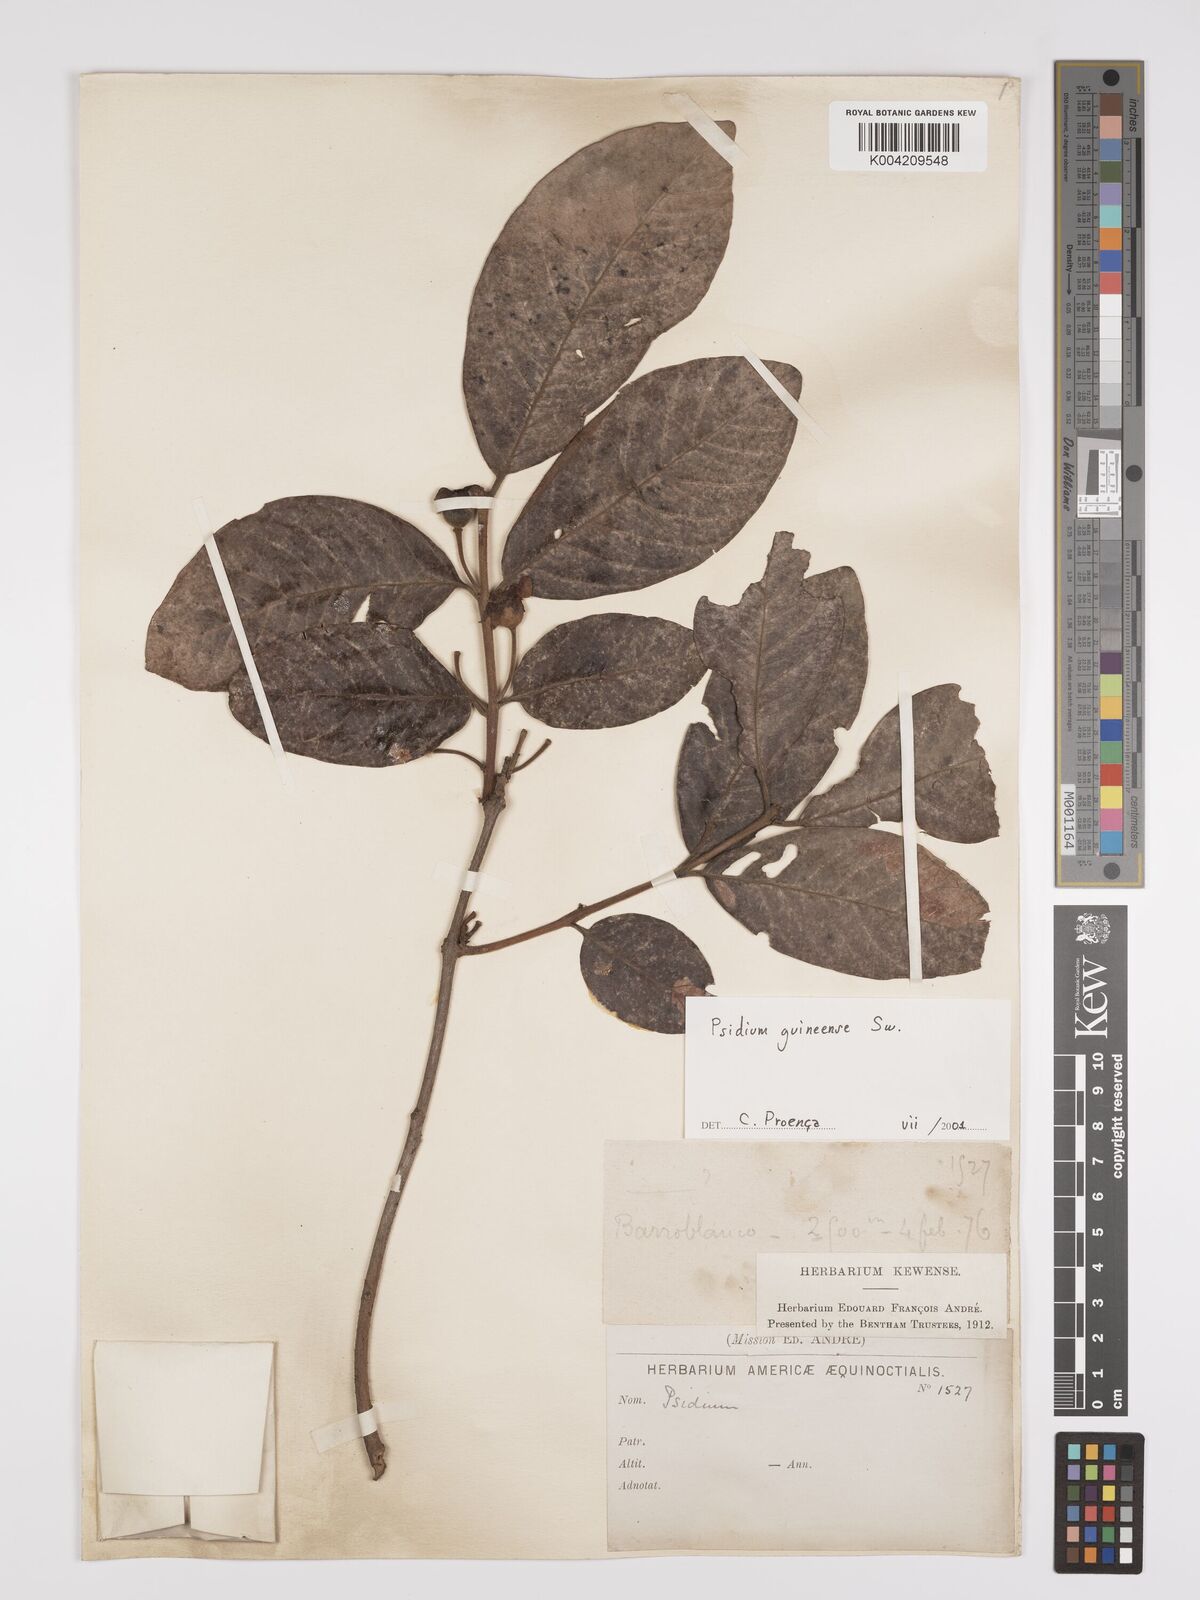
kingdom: Plantae
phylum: Tracheophyta
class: Magnoliopsida
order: Myrtales
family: Myrtaceae
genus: Psidium
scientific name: Psidium guineense
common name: Brazilian guava
